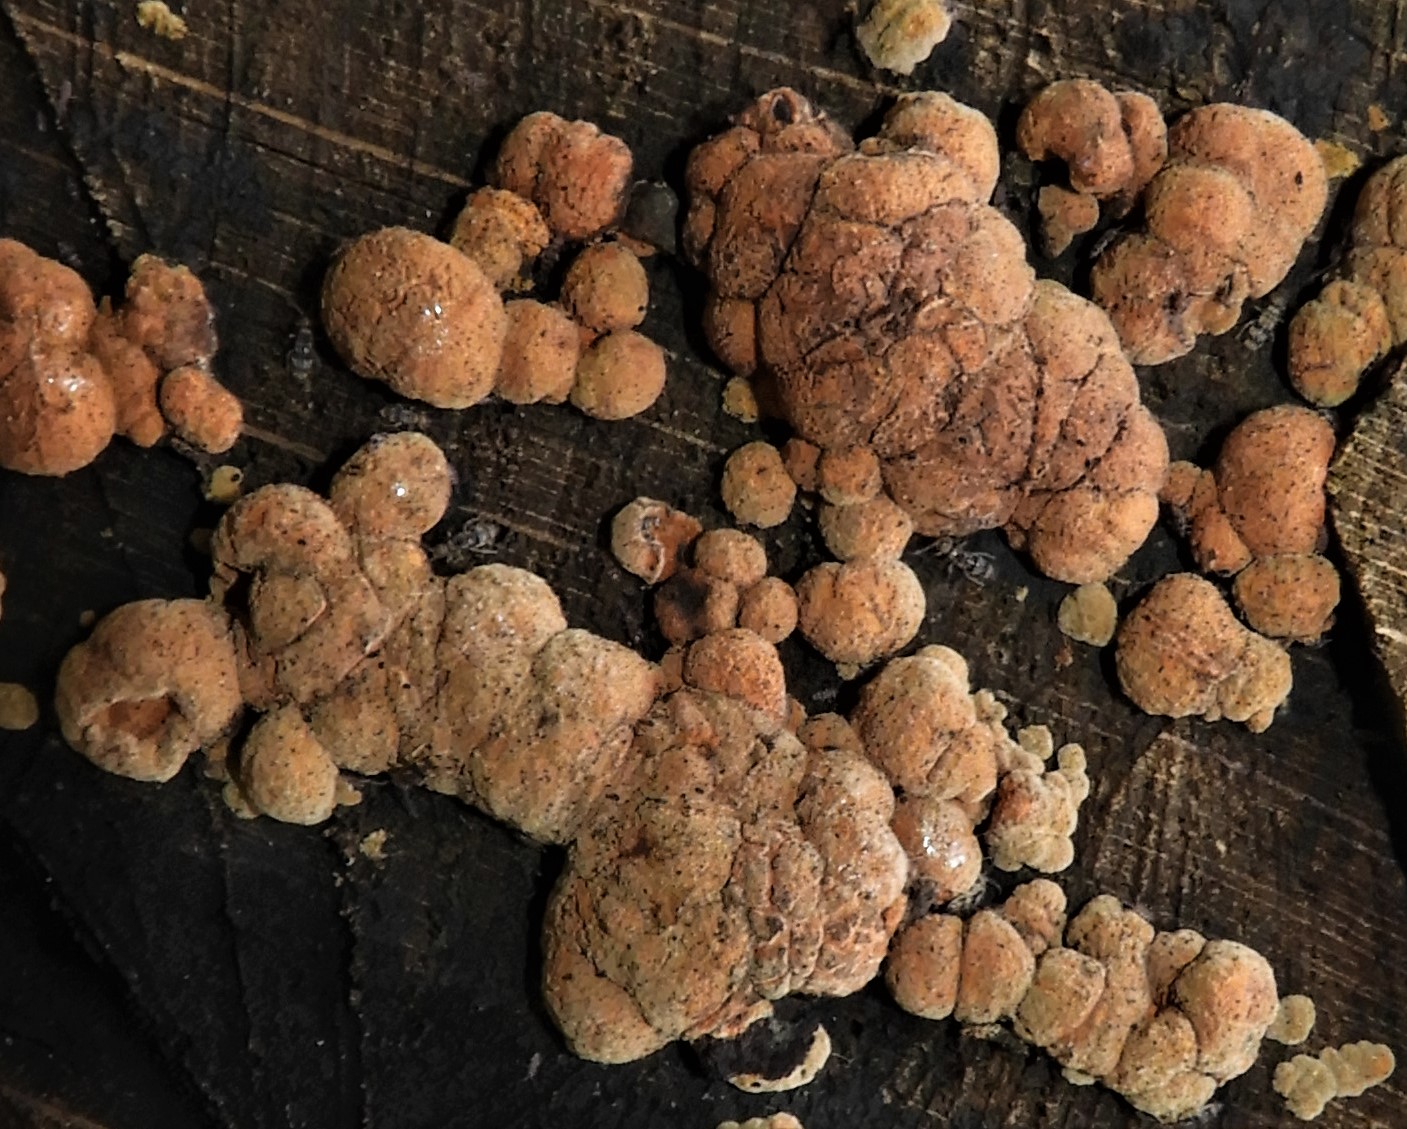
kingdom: Fungi
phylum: Ascomycota
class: Sordariomycetes
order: Xylariales
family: Hypoxylaceae
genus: Jackrogersella
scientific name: Jackrogersella cohaerens
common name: sammenflydende kulbær
